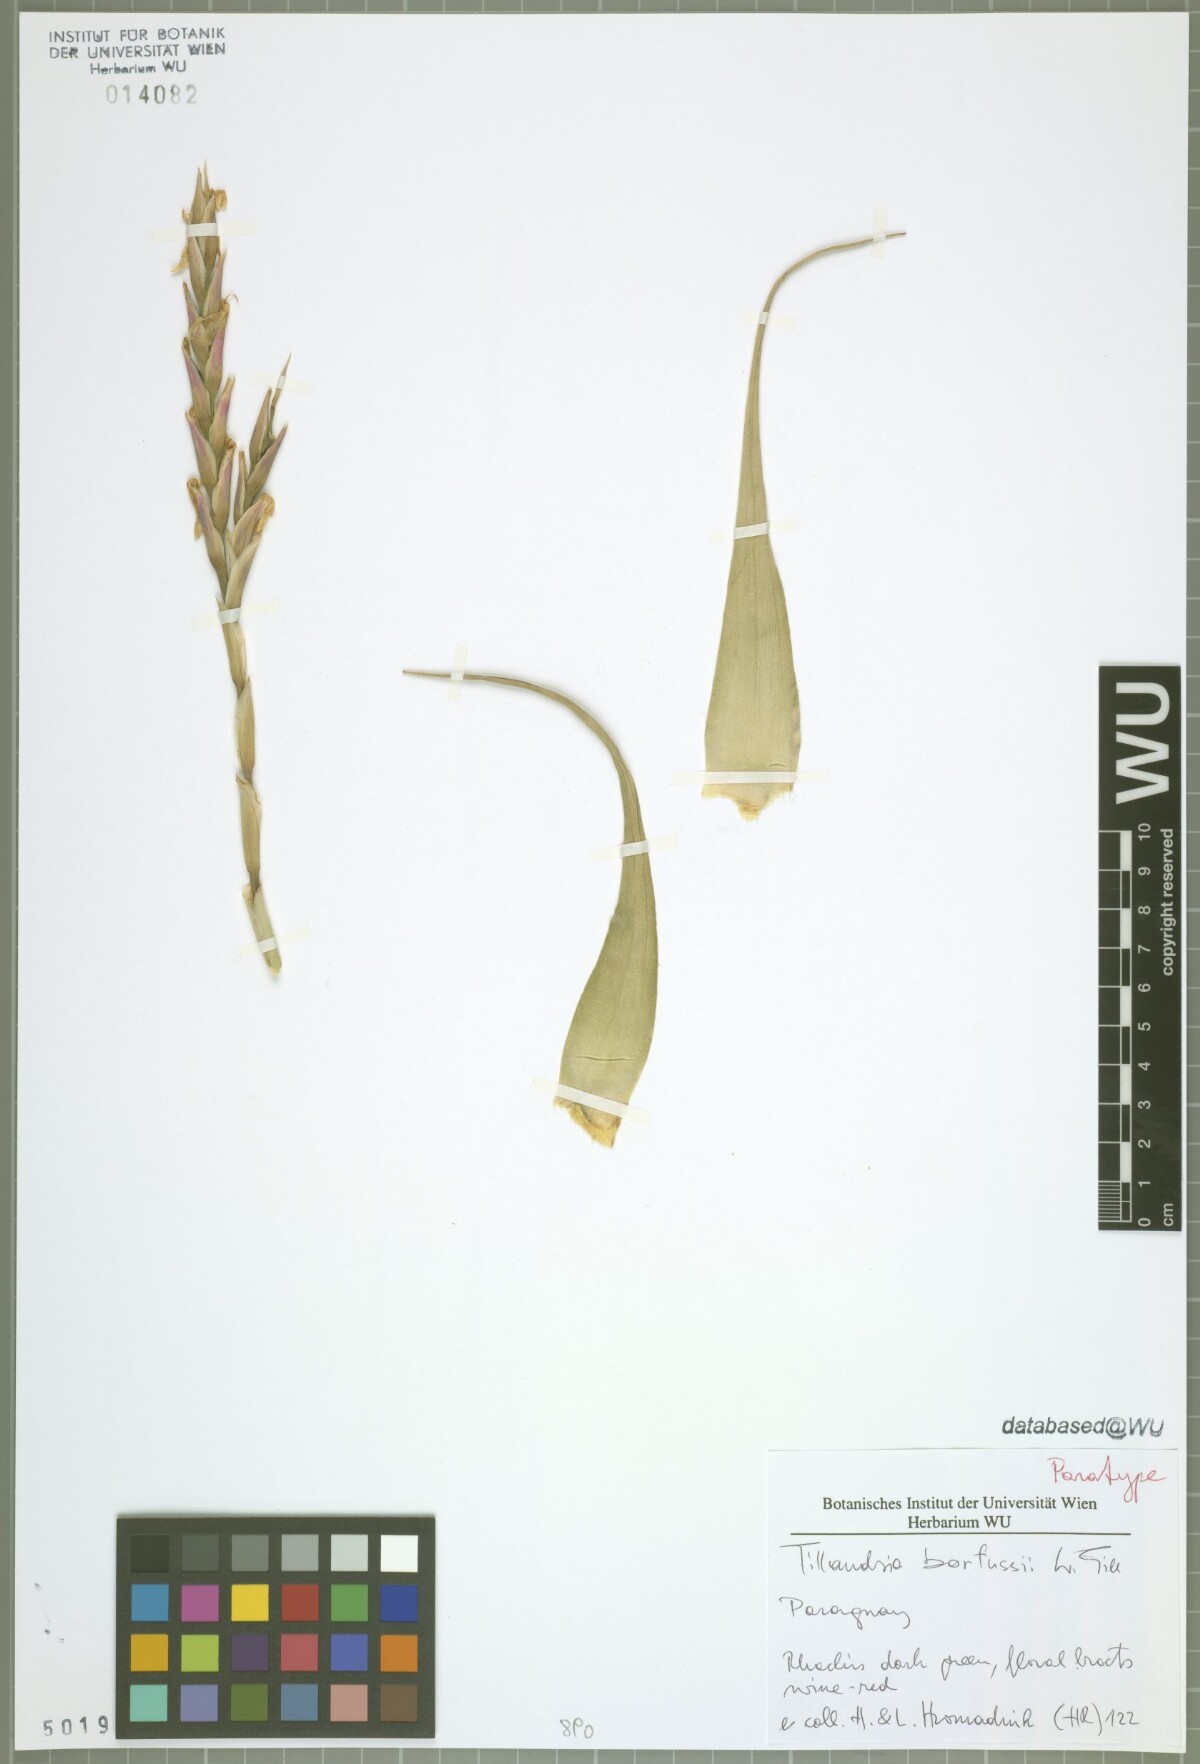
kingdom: Plantae
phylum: Tracheophyta
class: Liliopsida
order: Poales
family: Bromeliaceae
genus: Tillandsia
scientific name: Tillandsia barfussii
